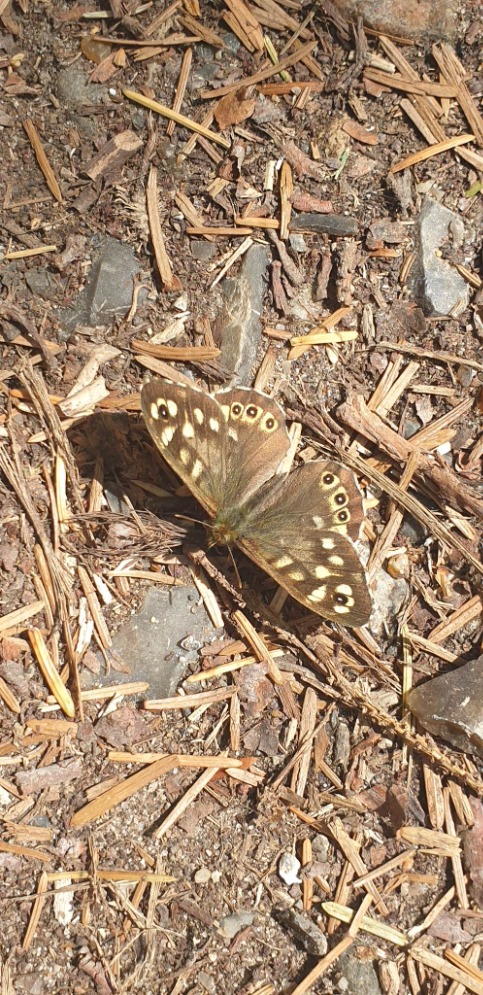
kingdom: Animalia
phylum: Arthropoda
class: Insecta
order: Lepidoptera
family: Nymphalidae
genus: Pararge
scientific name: Pararge aegeria
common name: Skovrandøje
